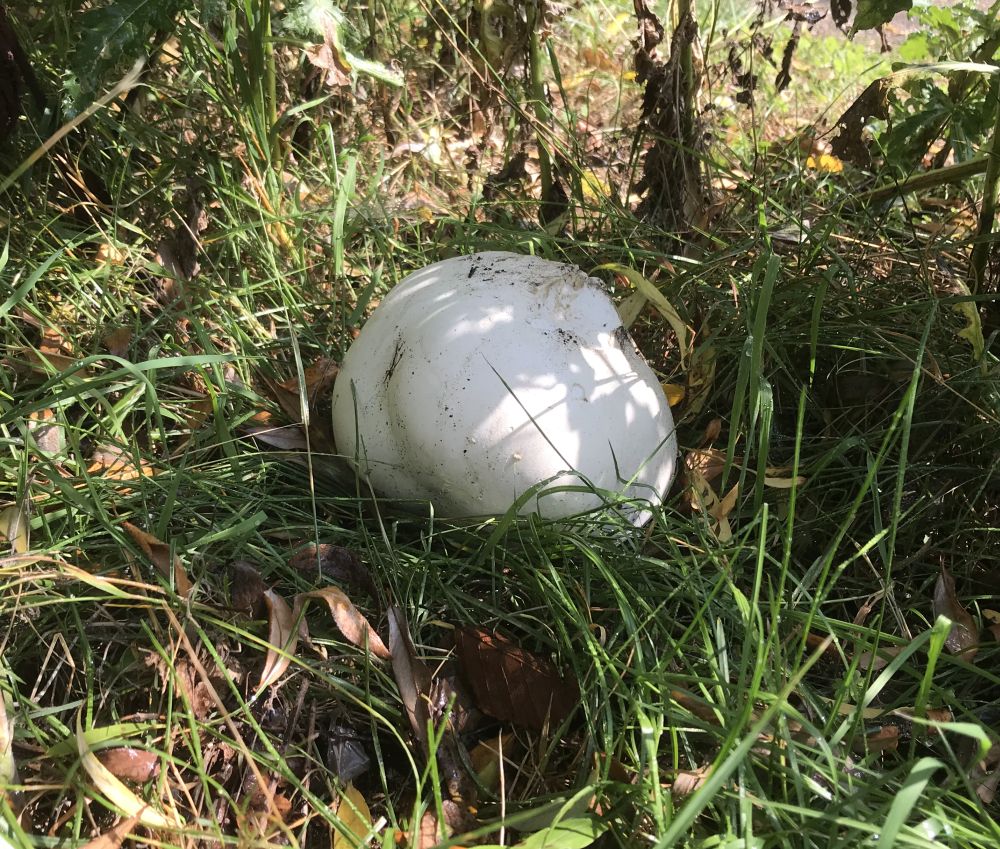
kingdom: Fungi
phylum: Basidiomycota
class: Agaricomycetes
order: Agaricales
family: Lycoperdaceae
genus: Calvatia
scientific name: Calvatia gigantea
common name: kæmpestøvbold
